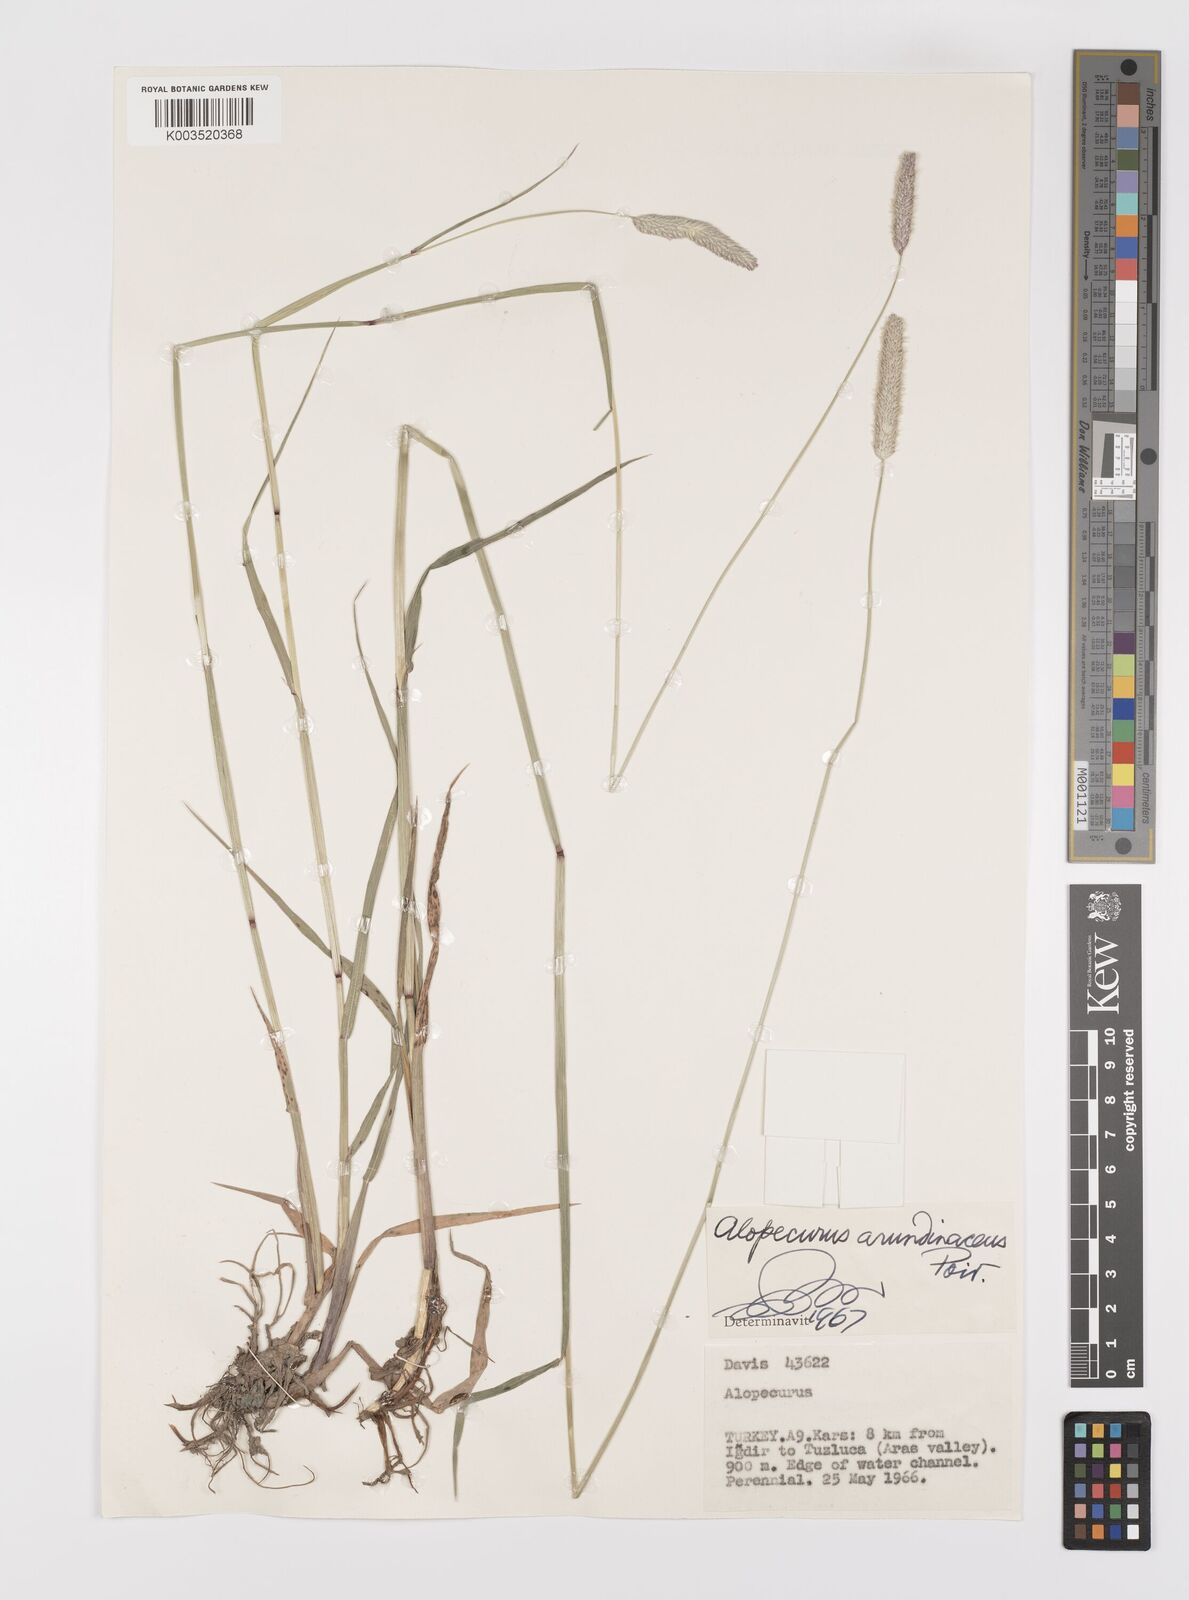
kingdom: Plantae
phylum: Tracheophyta
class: Liliopsida
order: Poales
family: Poaceae
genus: Alopecurus
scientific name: Alopecurus arundinaceus
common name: Creeping meadow foxtail
